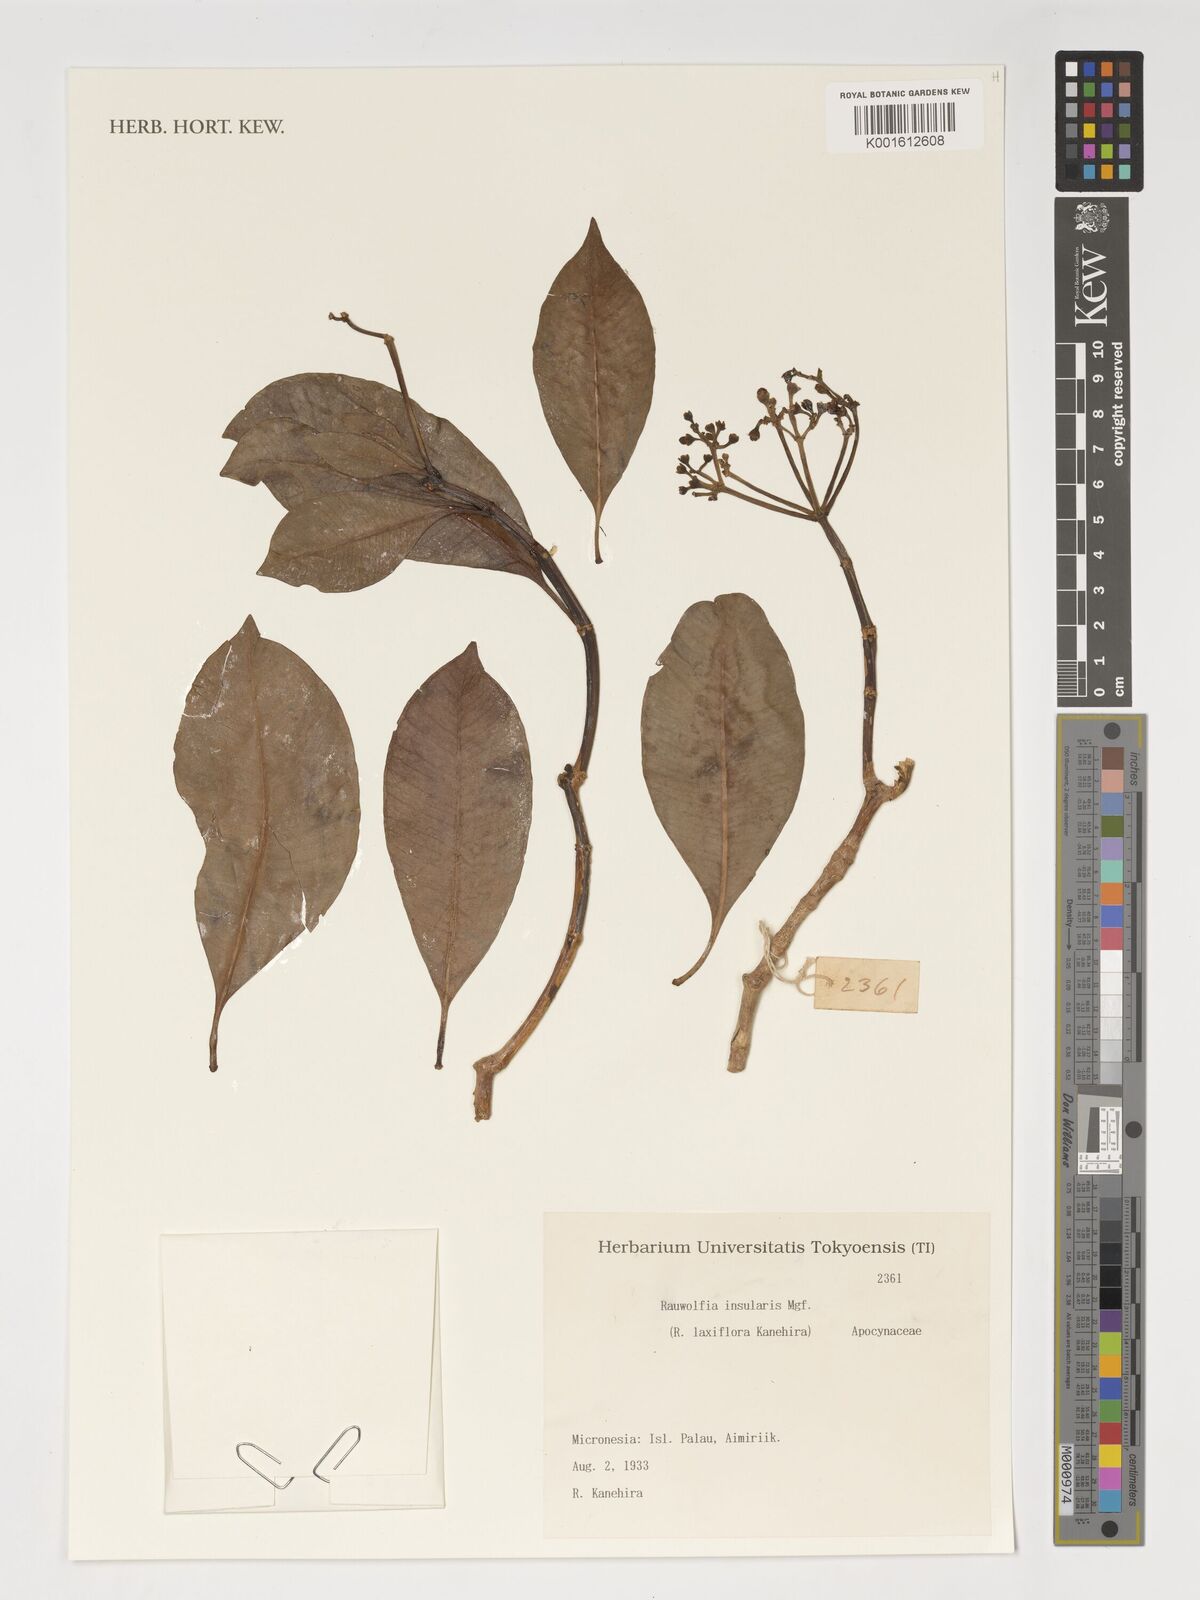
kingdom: Plantae
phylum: Tracheophyta
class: Magnoliopsida
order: Gentianales
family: Apocynaceae
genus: Rauvolfia
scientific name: Rauvolfia insularis
